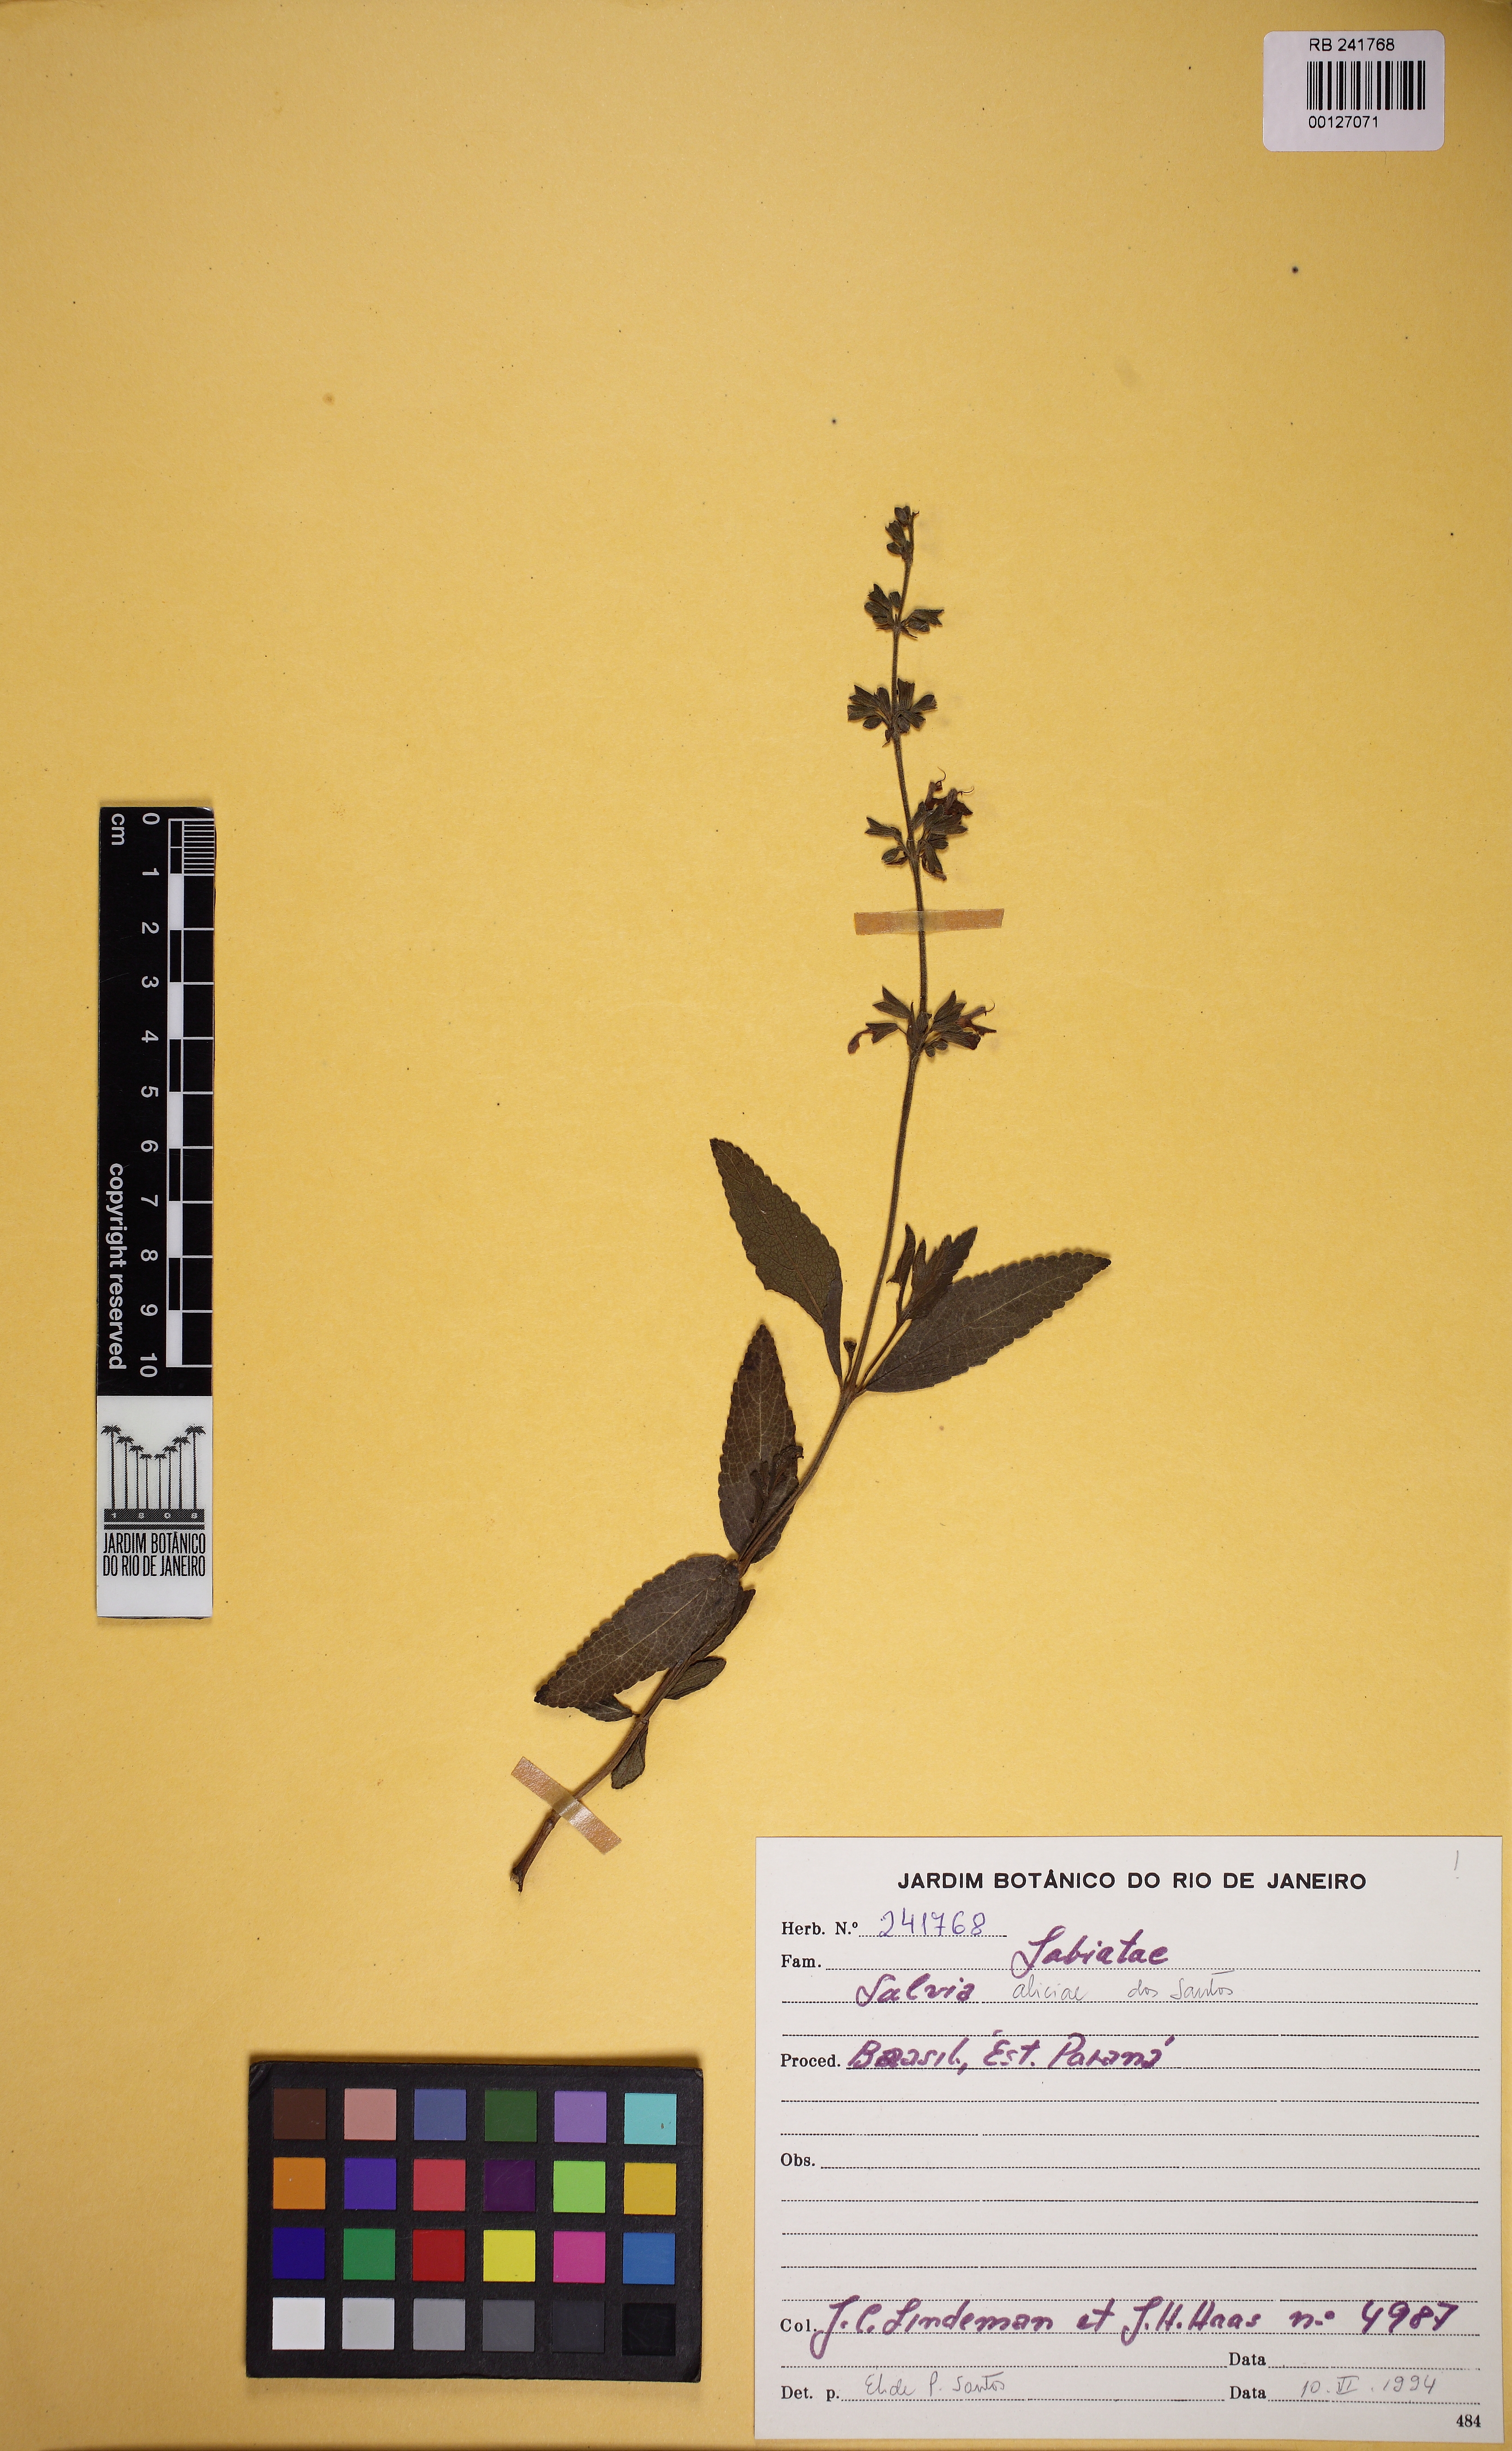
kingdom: Plantae
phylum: Tracheophyta
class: Magnoliopsida
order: Lamiales
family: Lamiaceae
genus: Salvia
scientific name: Salvia aliciae
